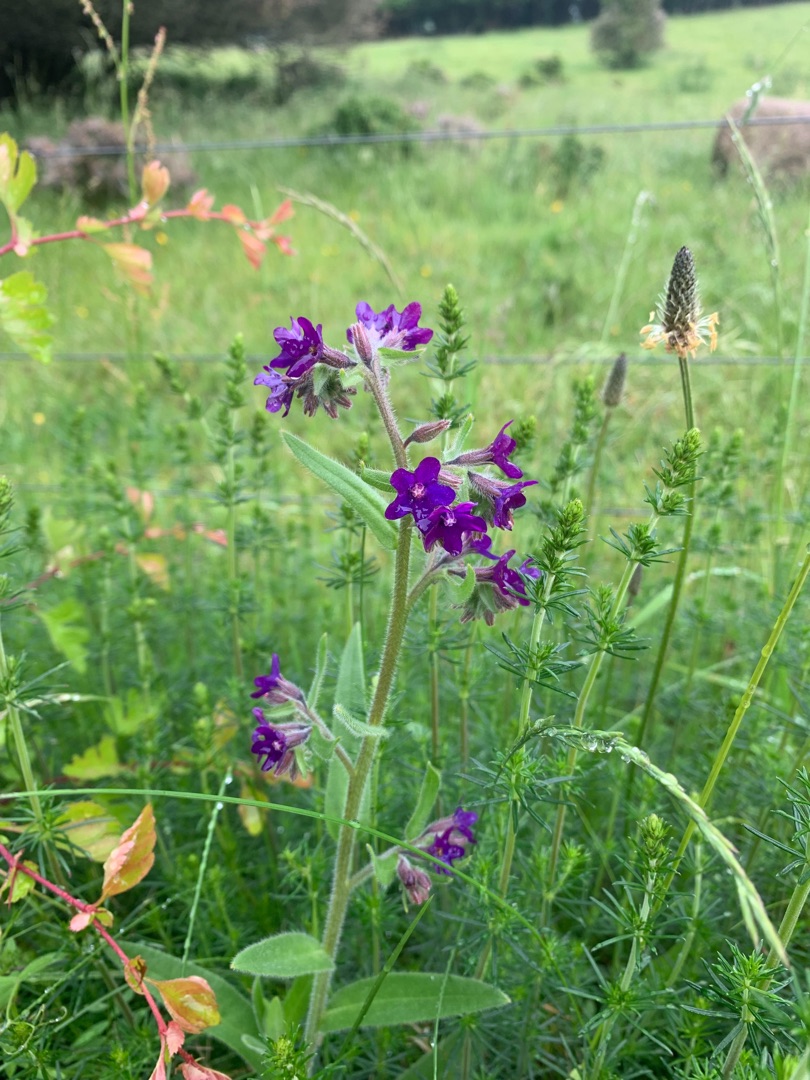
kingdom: Plantae
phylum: Tracheophyta
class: Magnoliopsida
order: Boraginales
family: Boraginaceae
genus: Anchusa
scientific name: Anchusa officinalis
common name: Læge-oksetunge
